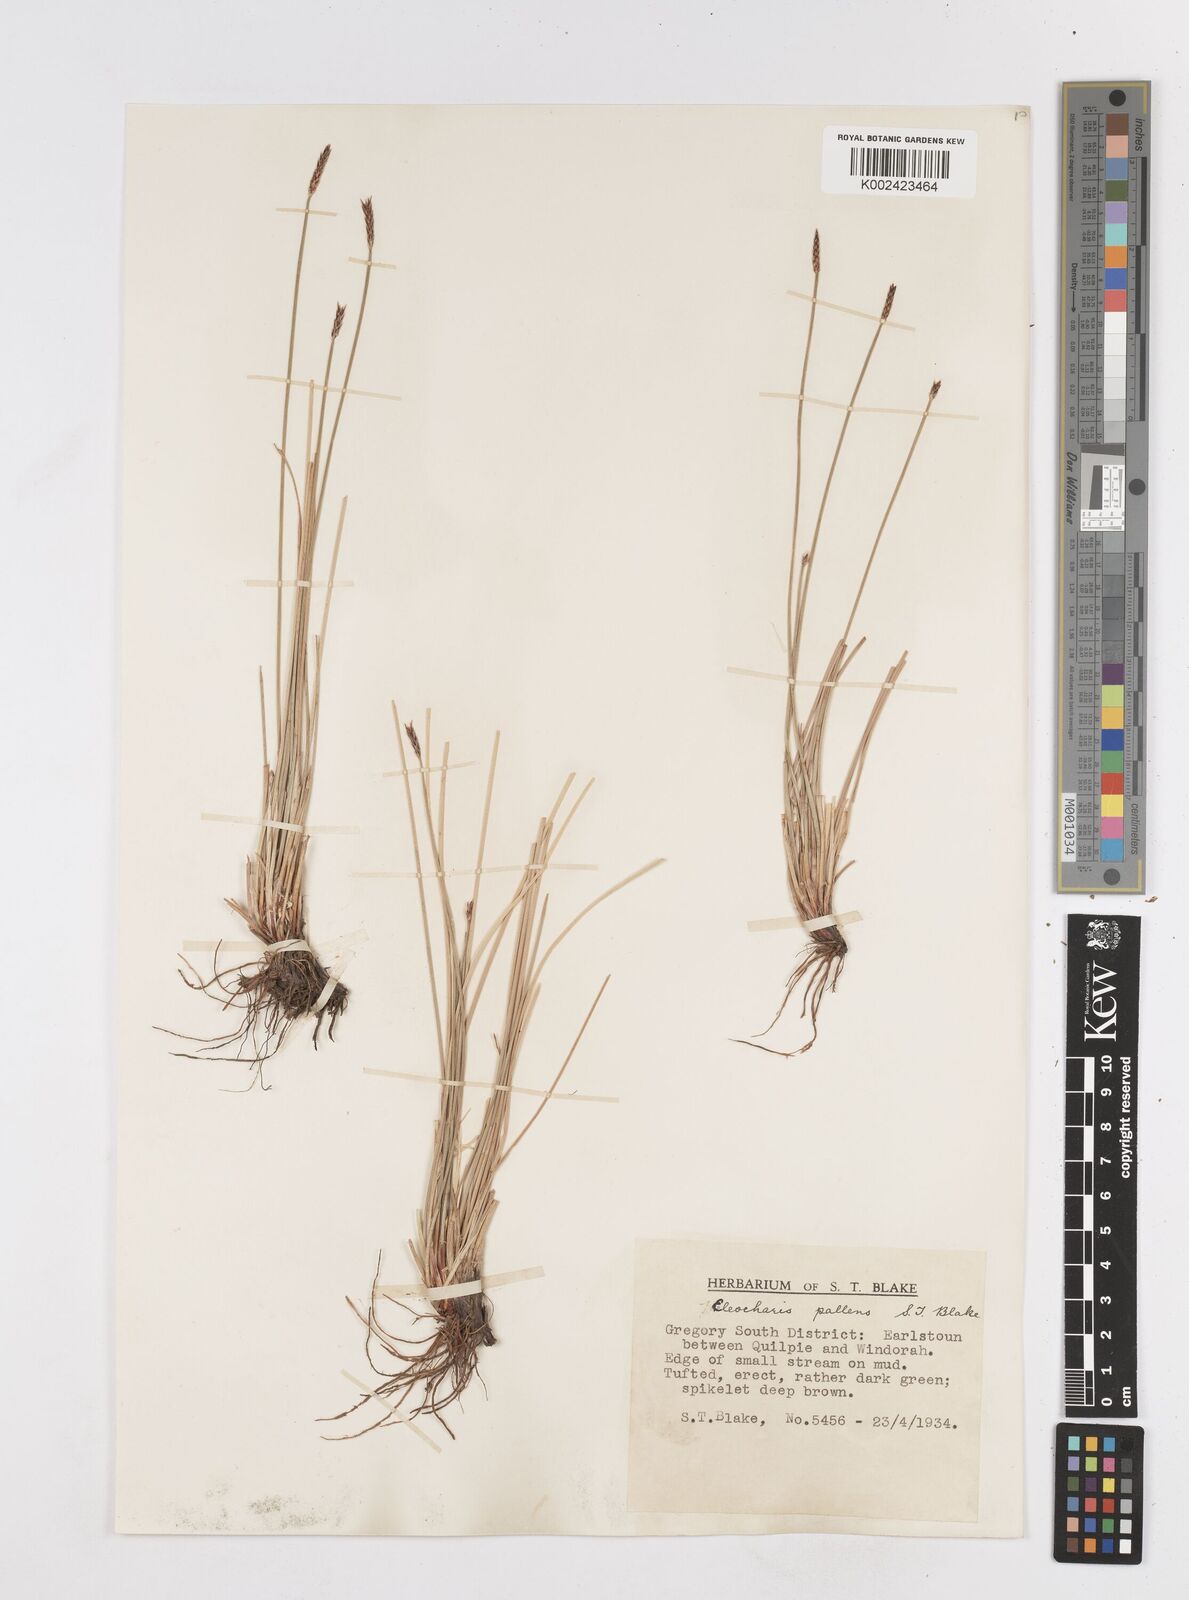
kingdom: Plantae
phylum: Tracheophyta
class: Liliopsida
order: Poales
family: Cyperaceae
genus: Eleocharis
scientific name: Eleocharis acuta
